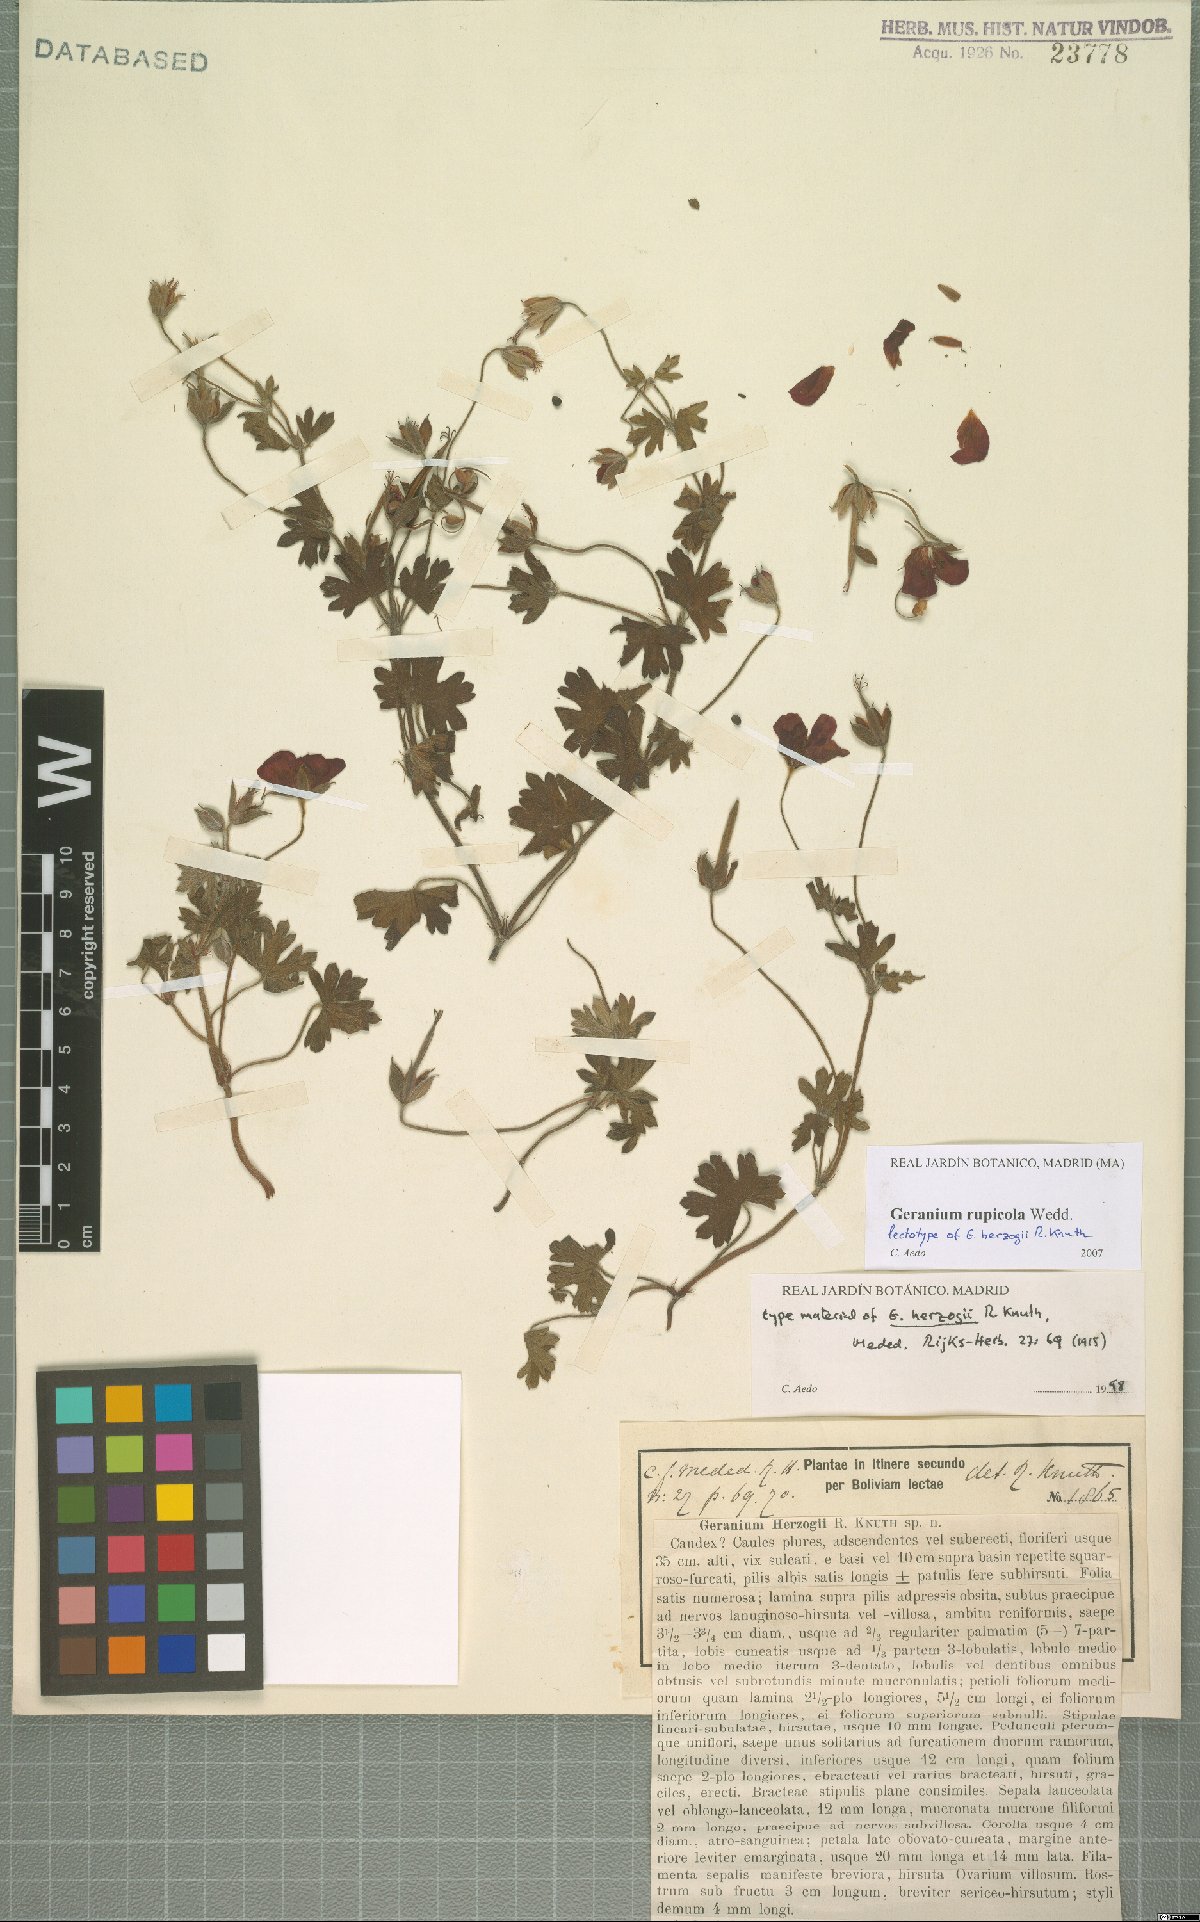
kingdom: Plantae
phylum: Tracheophyta
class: Magnoliopsida
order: Geraniales
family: Geraniaceae
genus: Geranium
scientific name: Geranium rupicola
